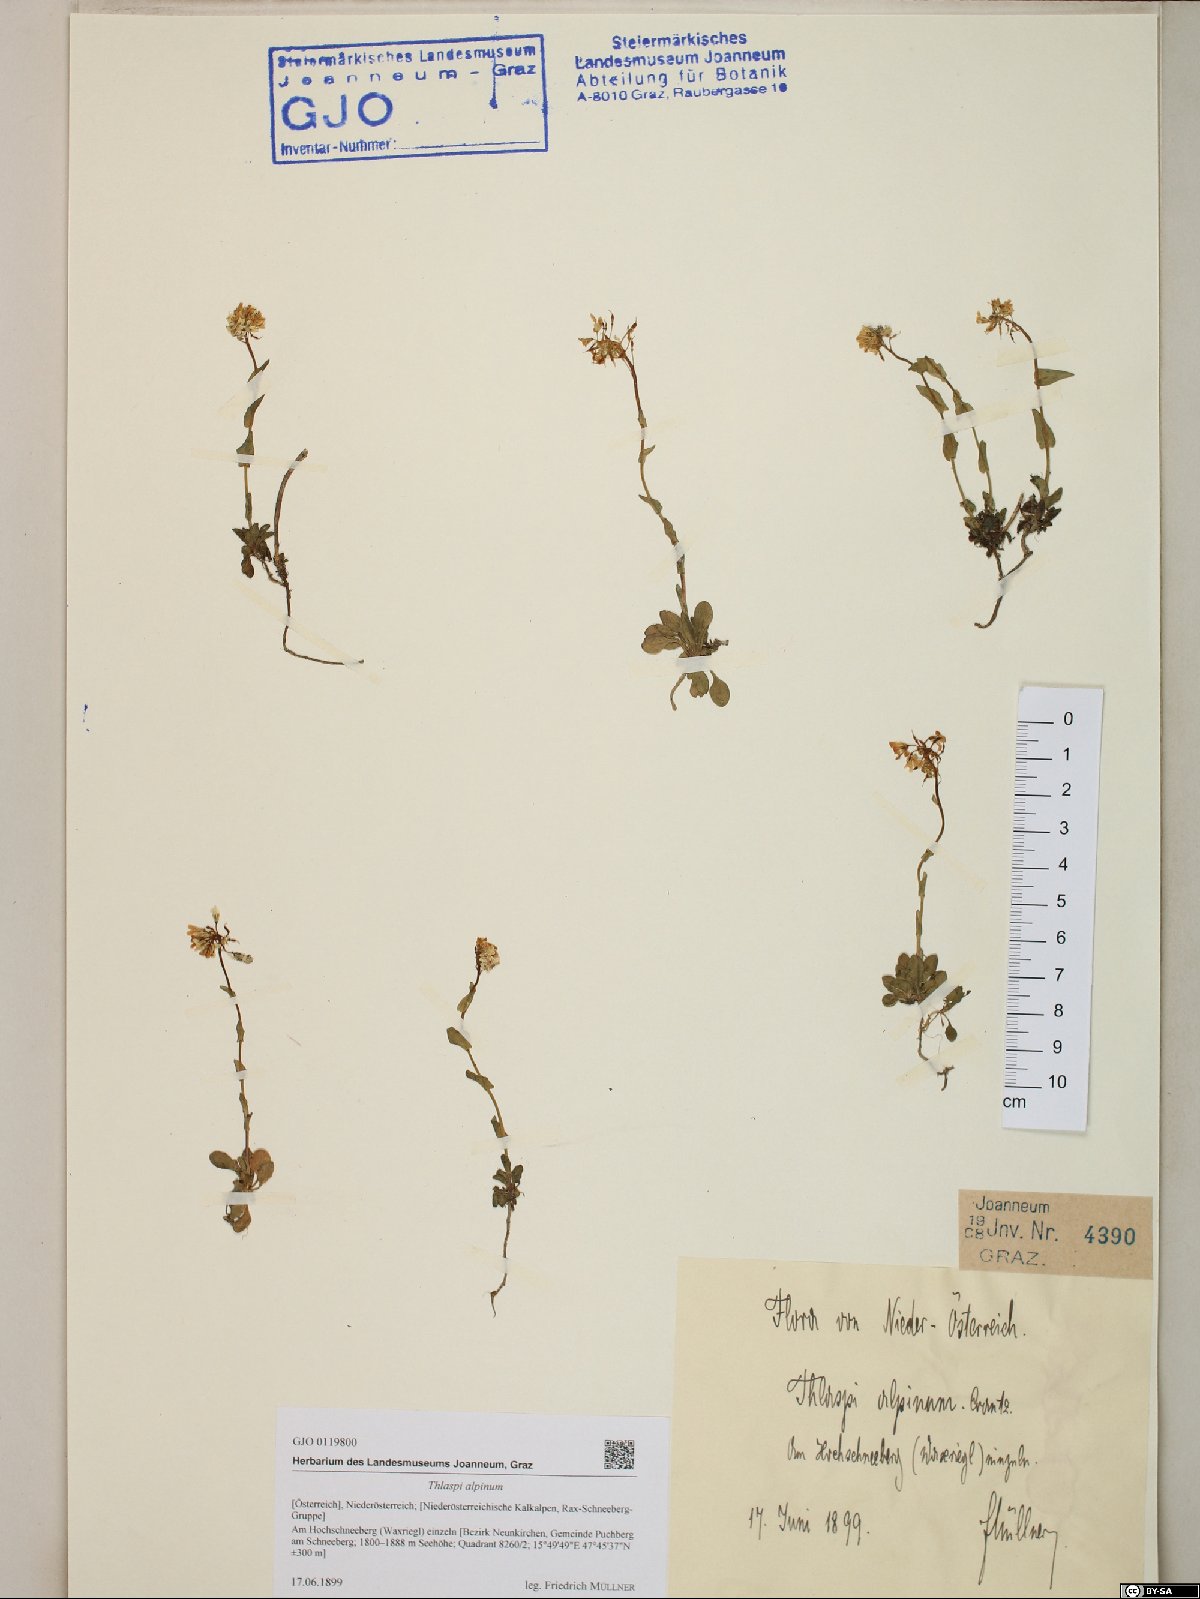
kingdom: Plantae
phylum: Tracheophyta
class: Magnoliopsida
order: Brassicales
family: Brassicaceae
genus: Noccaea
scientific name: Noccaea alpestris
